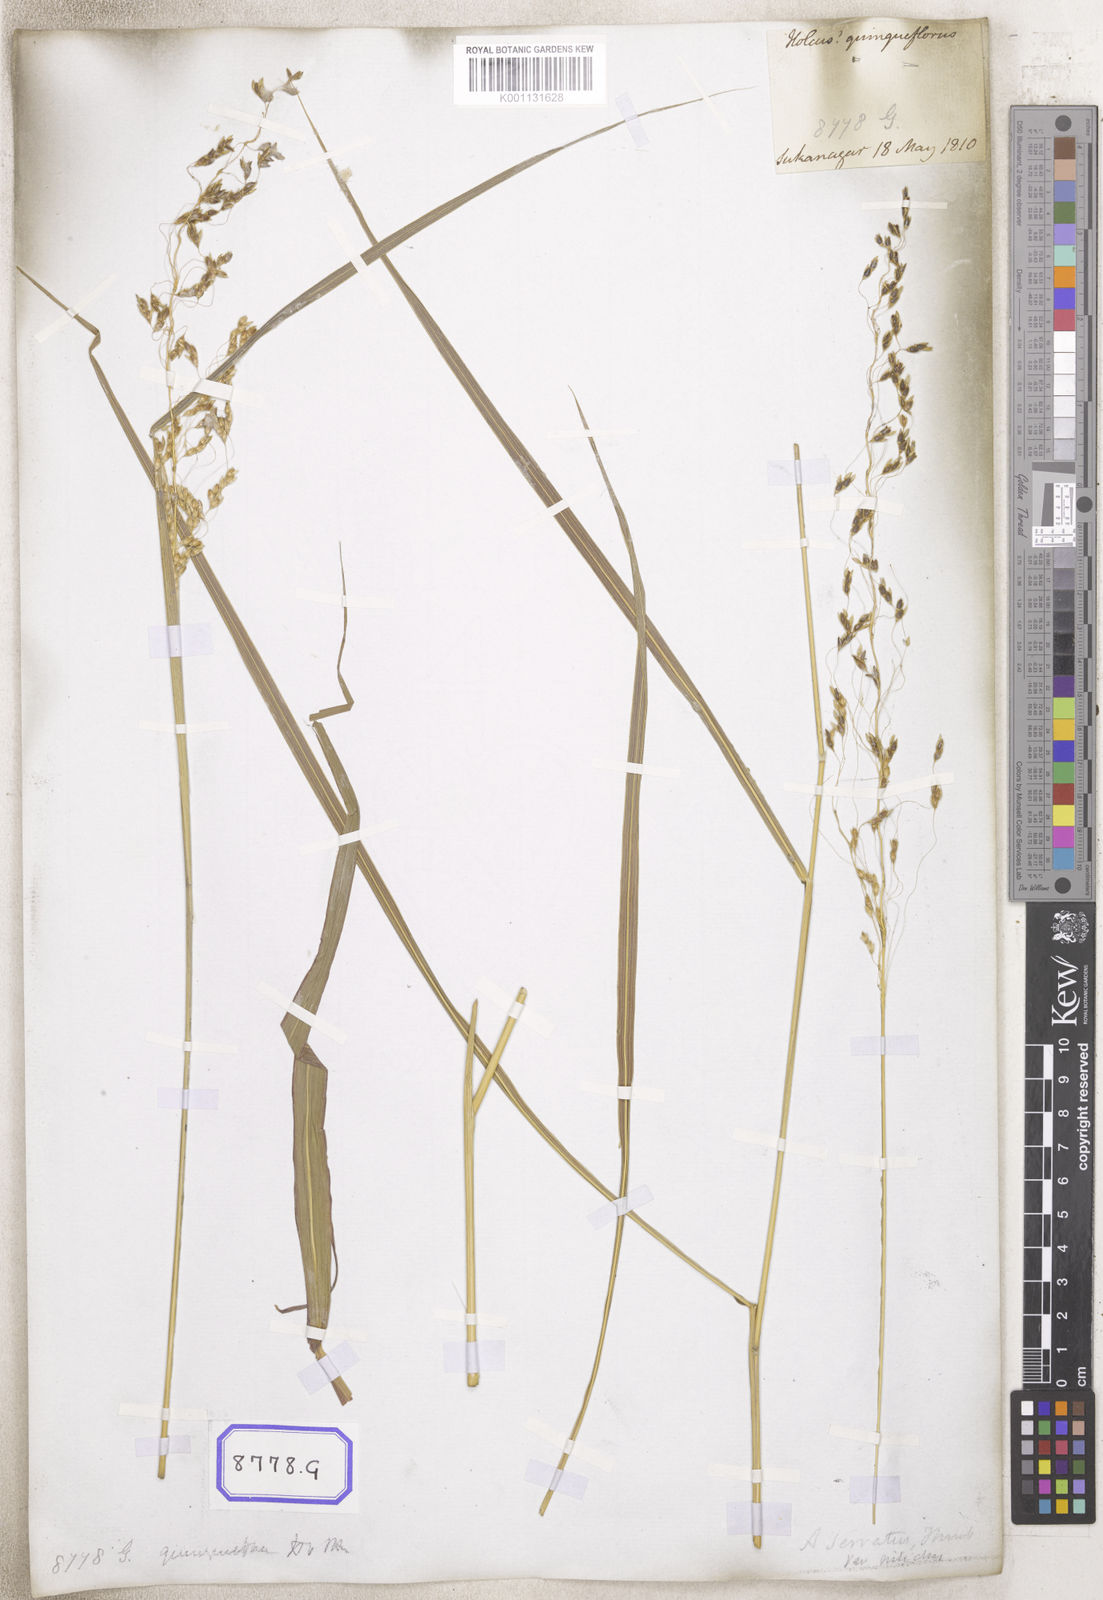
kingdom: Plantae
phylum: Tracheophyta
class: Liliopsida
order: Poales
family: Poaceae
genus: Sorghum
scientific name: Sorghum halepense
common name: Johnson-grass
